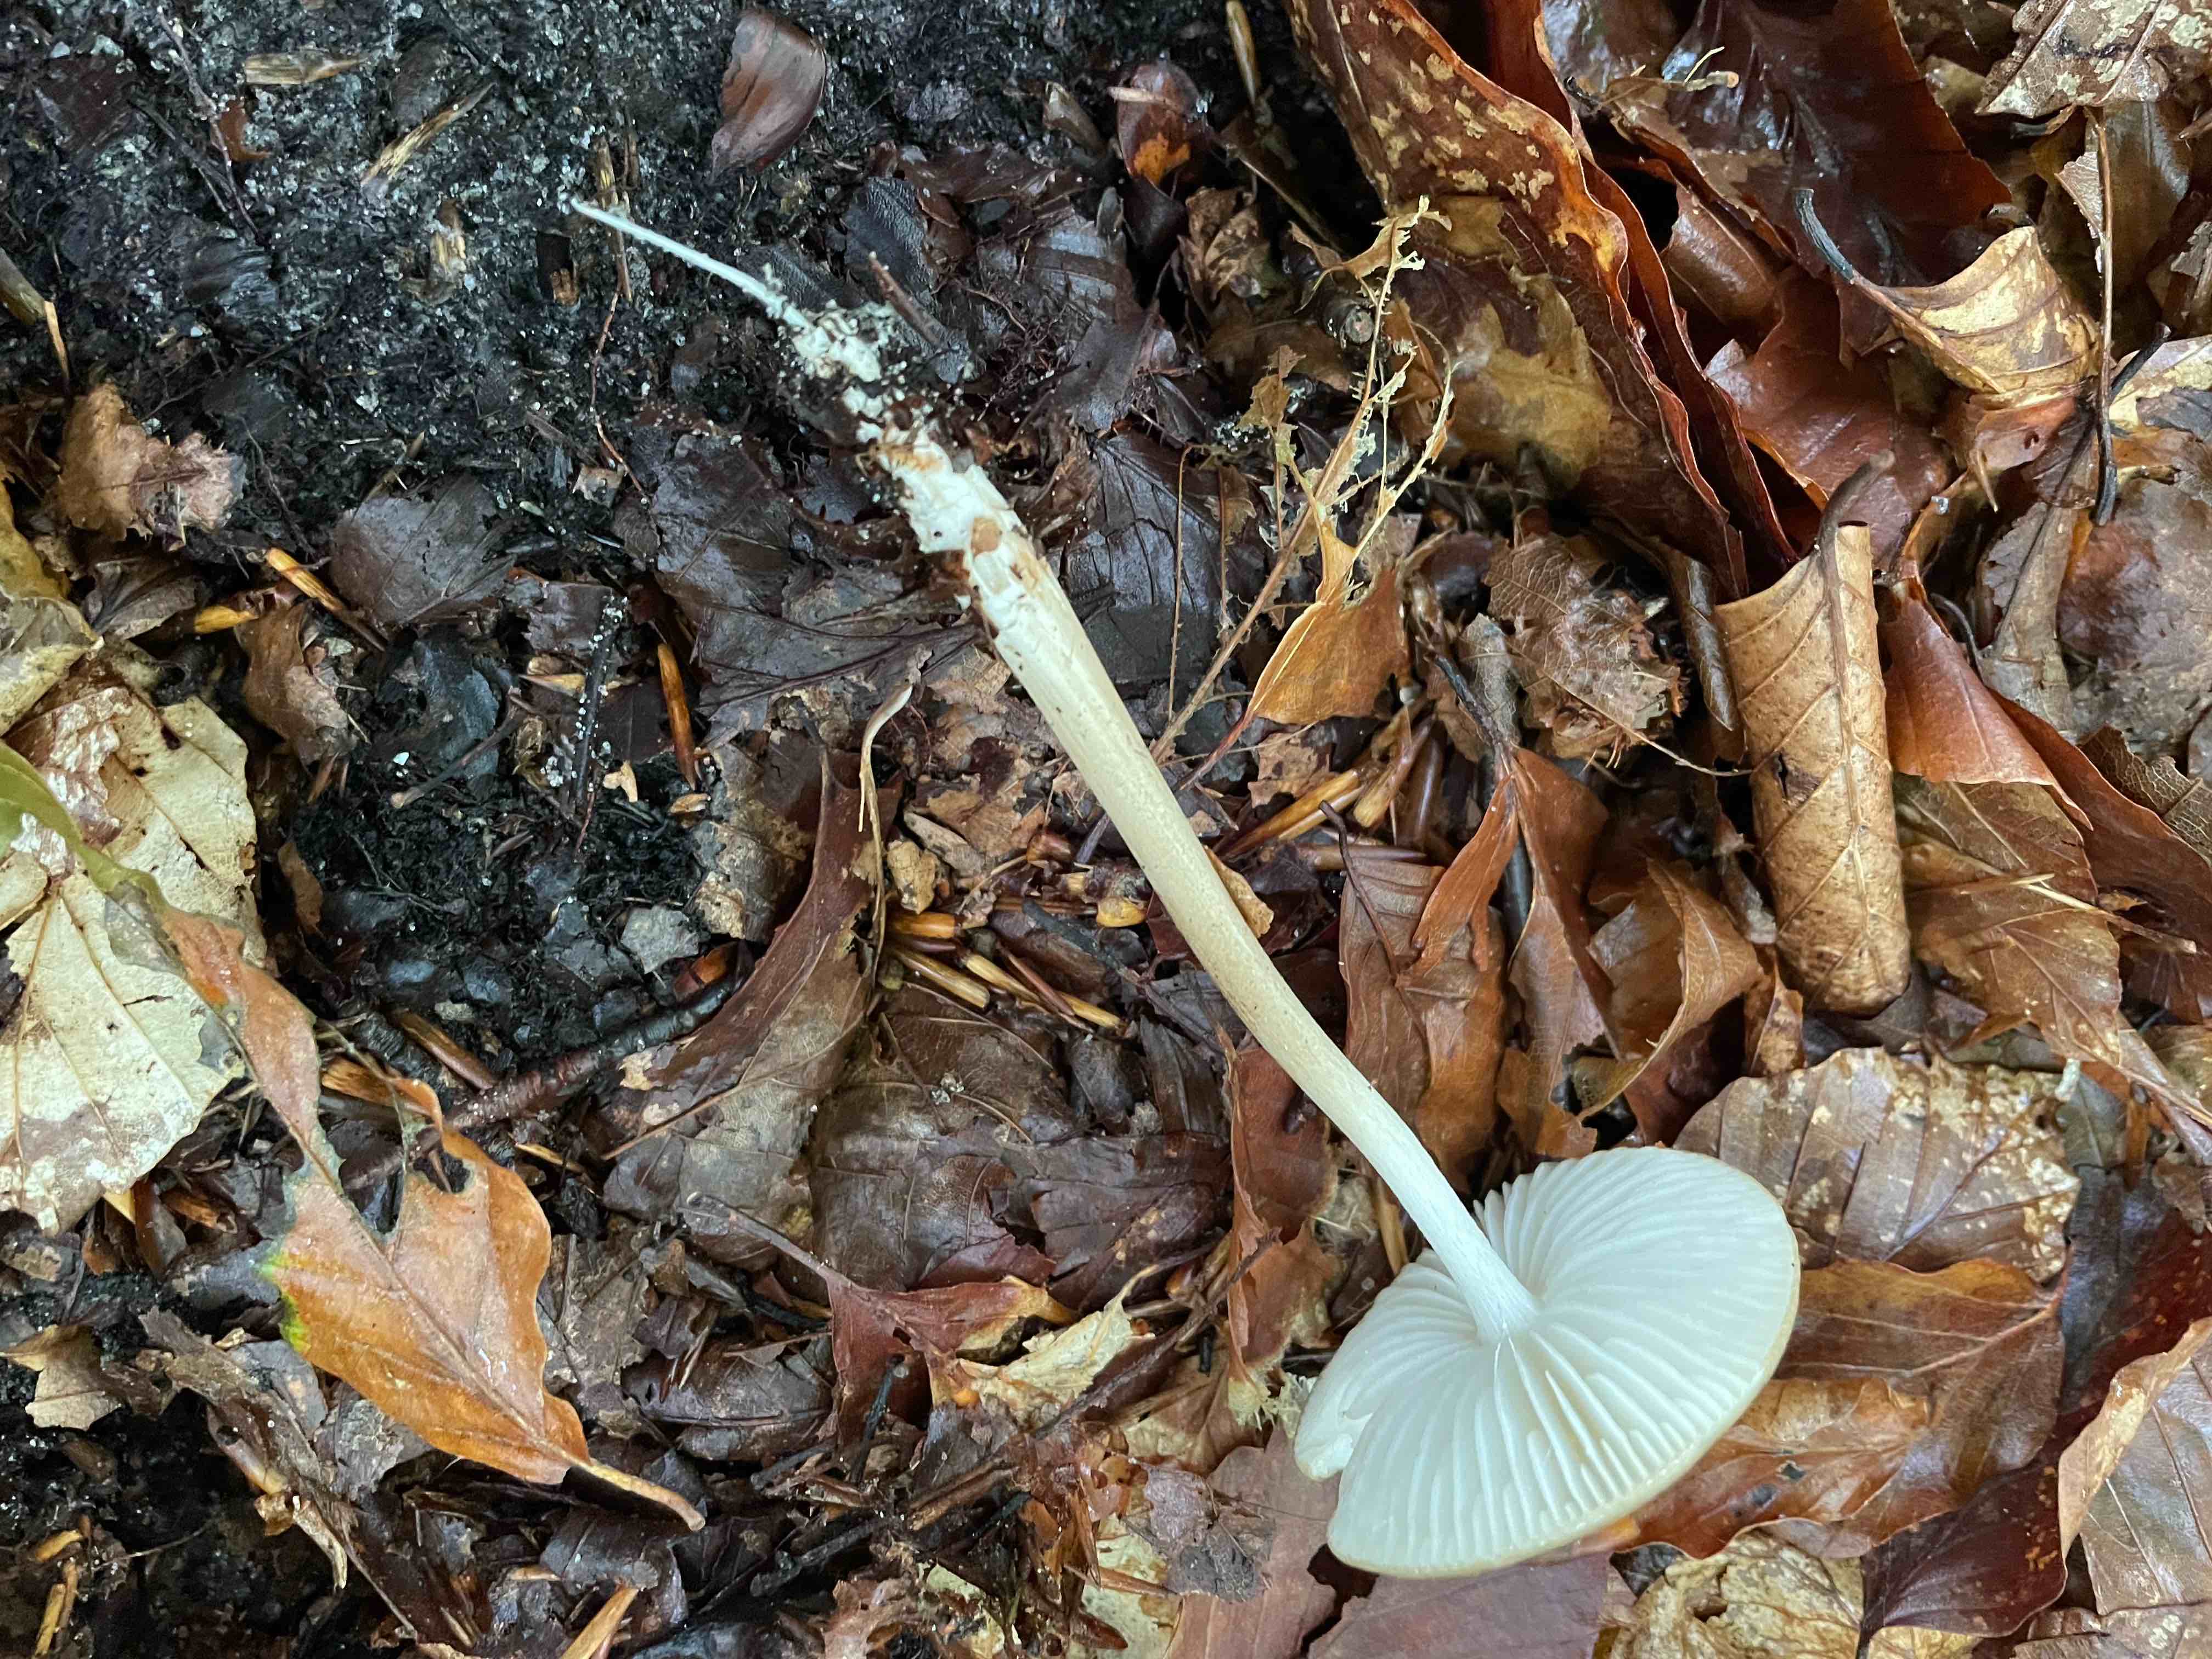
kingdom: Fungi
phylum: Basidiomycota
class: Agaricomycetes
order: Agaricales
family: Physalacriaceae
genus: Hymenopellis
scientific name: Hymenopellis radicata
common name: almindelig pælerodshat
